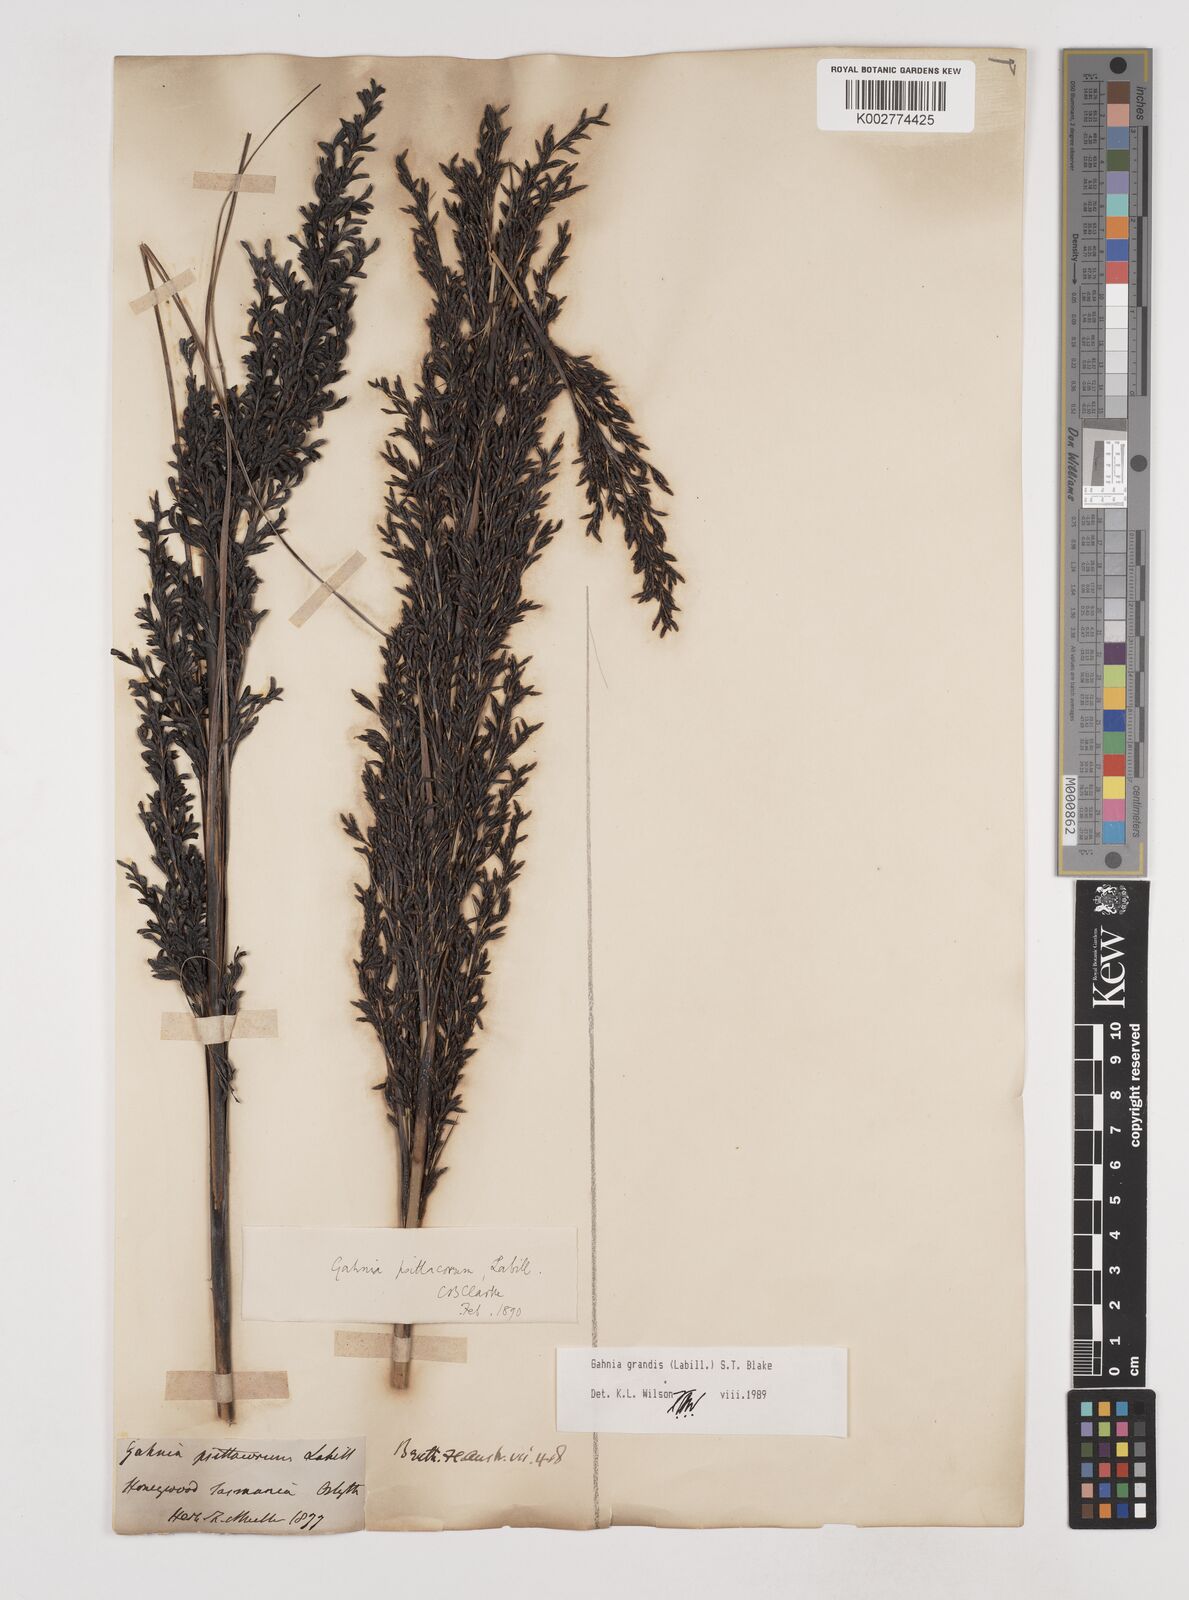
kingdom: Plantae
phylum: Tracheophyta
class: Liliopsida
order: Poales
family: Cyperaceae
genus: Gahnia
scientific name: Gahnia grandis
